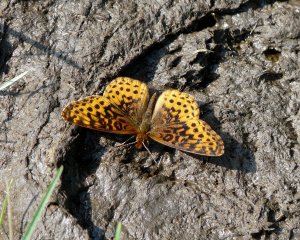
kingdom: Animalia
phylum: Arthropoda
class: Insecta
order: Lepidoptera
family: Nymphalidae
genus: Clossiana
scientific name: Clossiana toddi
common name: Meadow Fritillary
